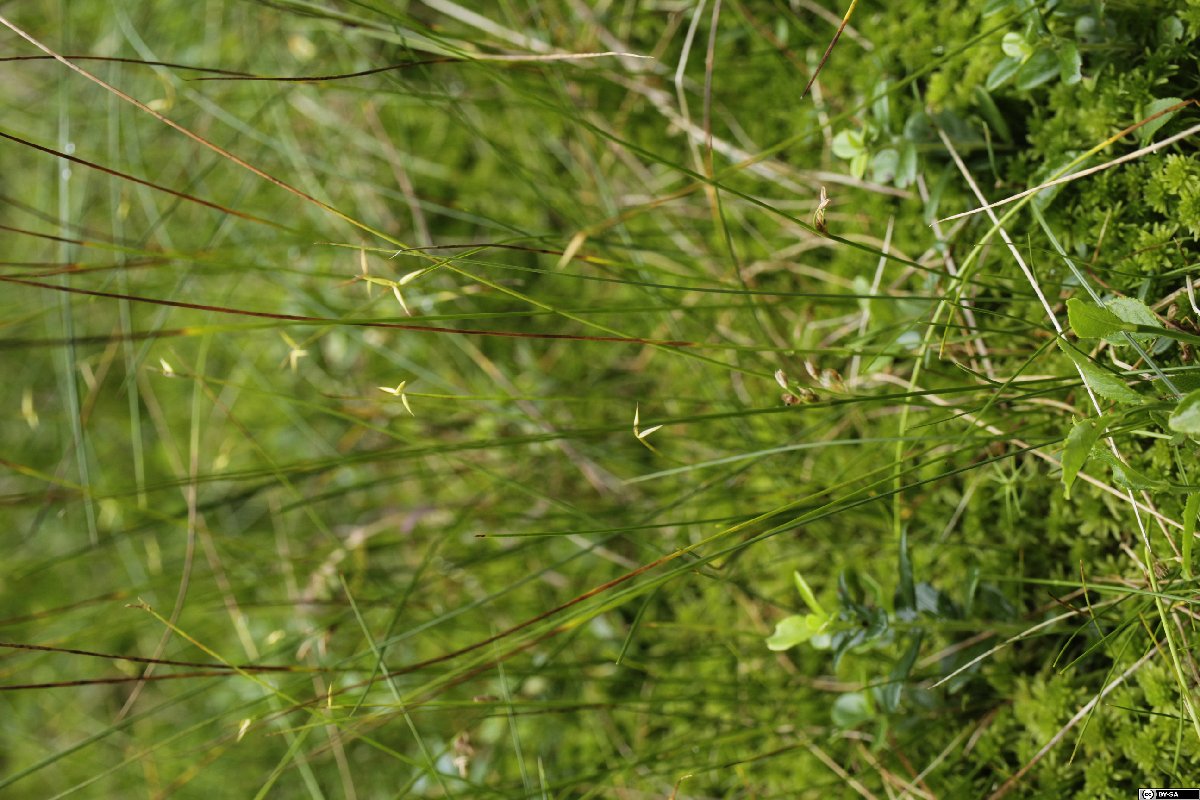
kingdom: Plantae
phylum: Tracheophyta
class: Liliopsida
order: Poales
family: Cyperaceae
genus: Carex
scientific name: Carex pauciflora
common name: Few-flowered sedge
